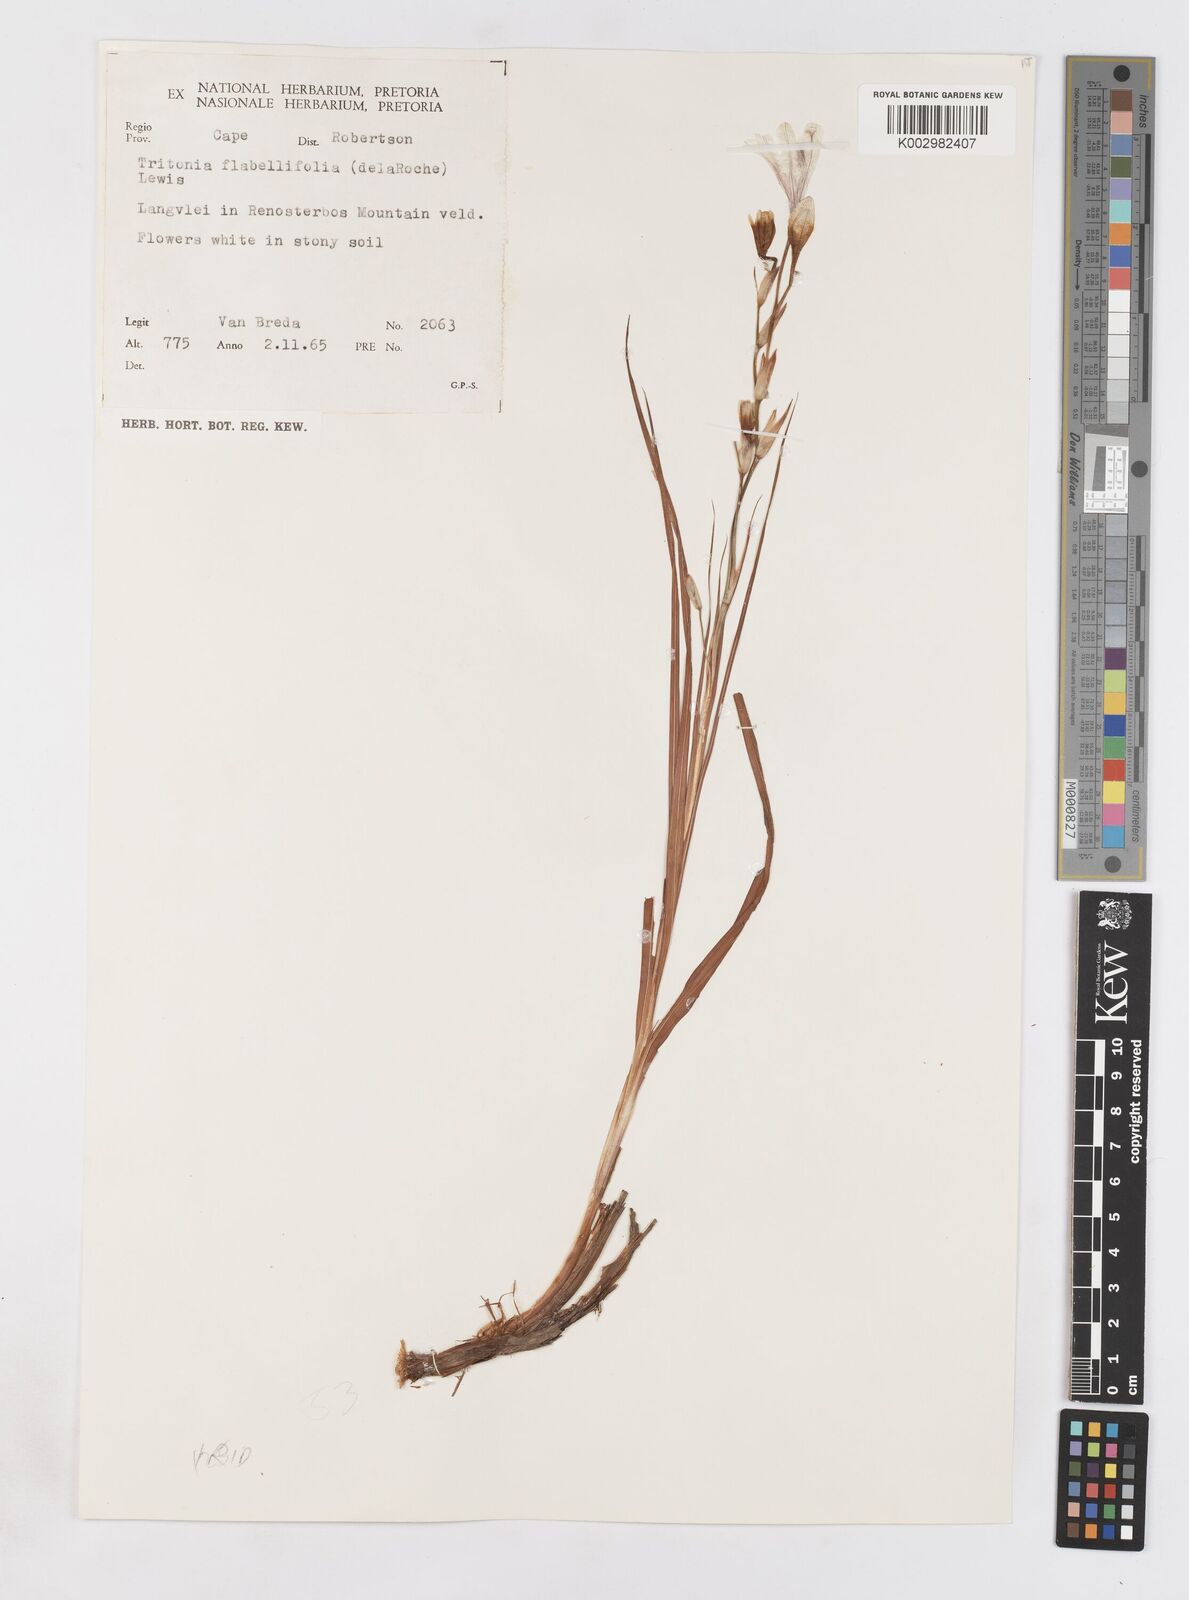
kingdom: Plantae
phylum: Tracheophyta
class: Liliopsida
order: Asparagales
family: Iridaceae
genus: Tritonia
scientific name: Tritonia flabellifolia
